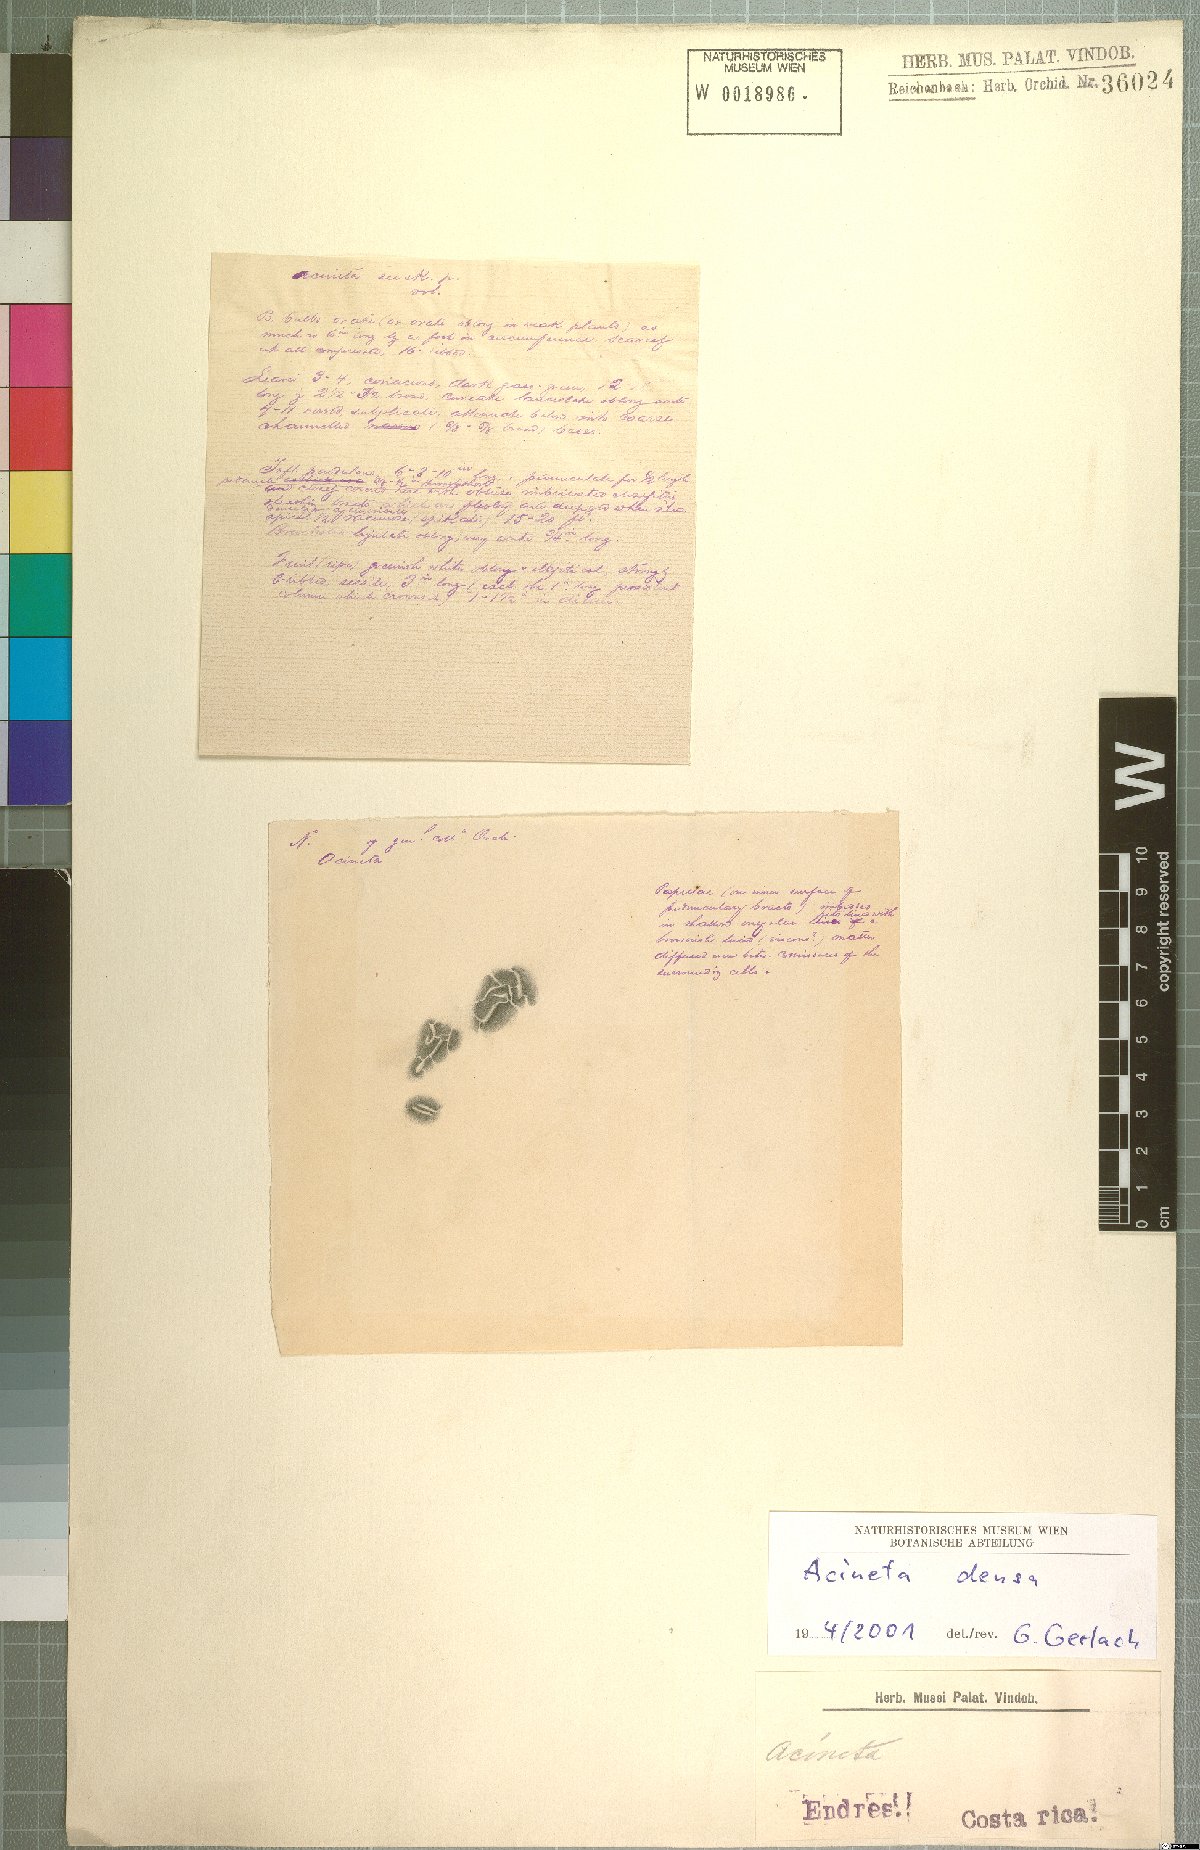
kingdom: Plantae
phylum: Tracheophyta
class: Liliopsida
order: Asparagales
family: Orchidaceae
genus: Acineta
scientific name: Acineta densa
